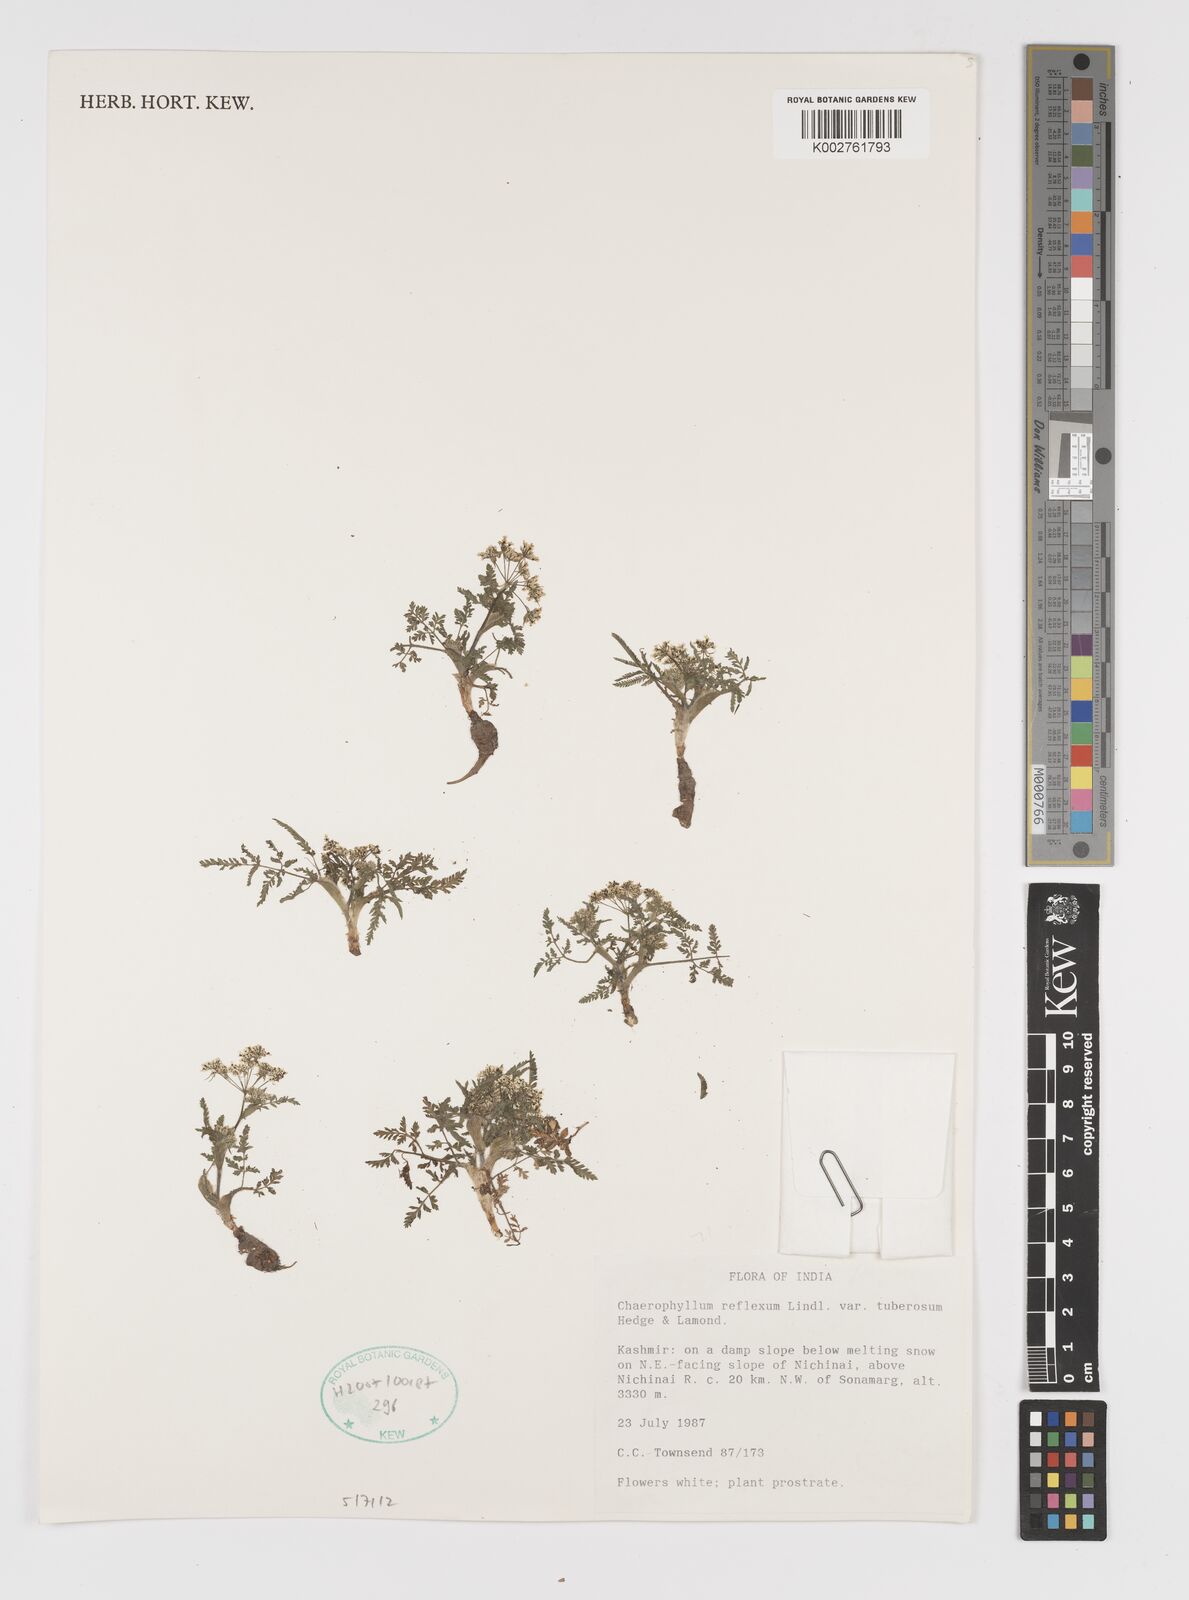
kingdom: Plantae
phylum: Tracheophyta
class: Magnoliopsida
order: Apiales
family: Apiaceae
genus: Chaerophyllum
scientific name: Chaerophyllum reflexum
